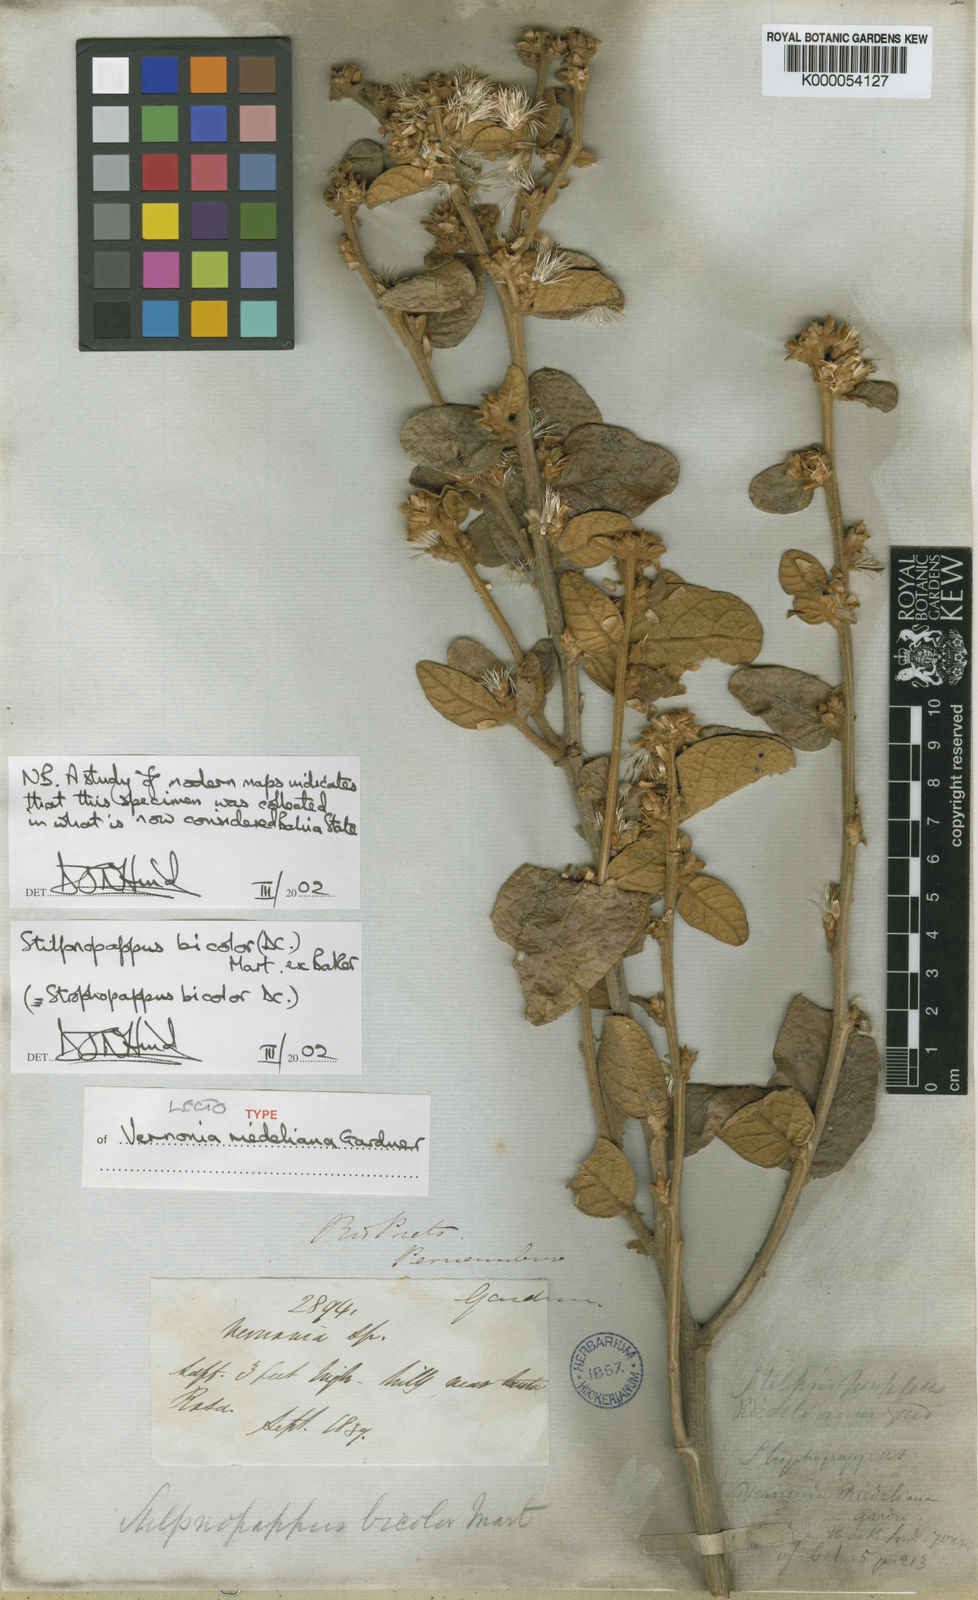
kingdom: Plantae
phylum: Tracheophyta
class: Magnoliopsida
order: Asterales
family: Asteraceae
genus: Stilpnopappus
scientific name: Stilpnopappus bicolor
